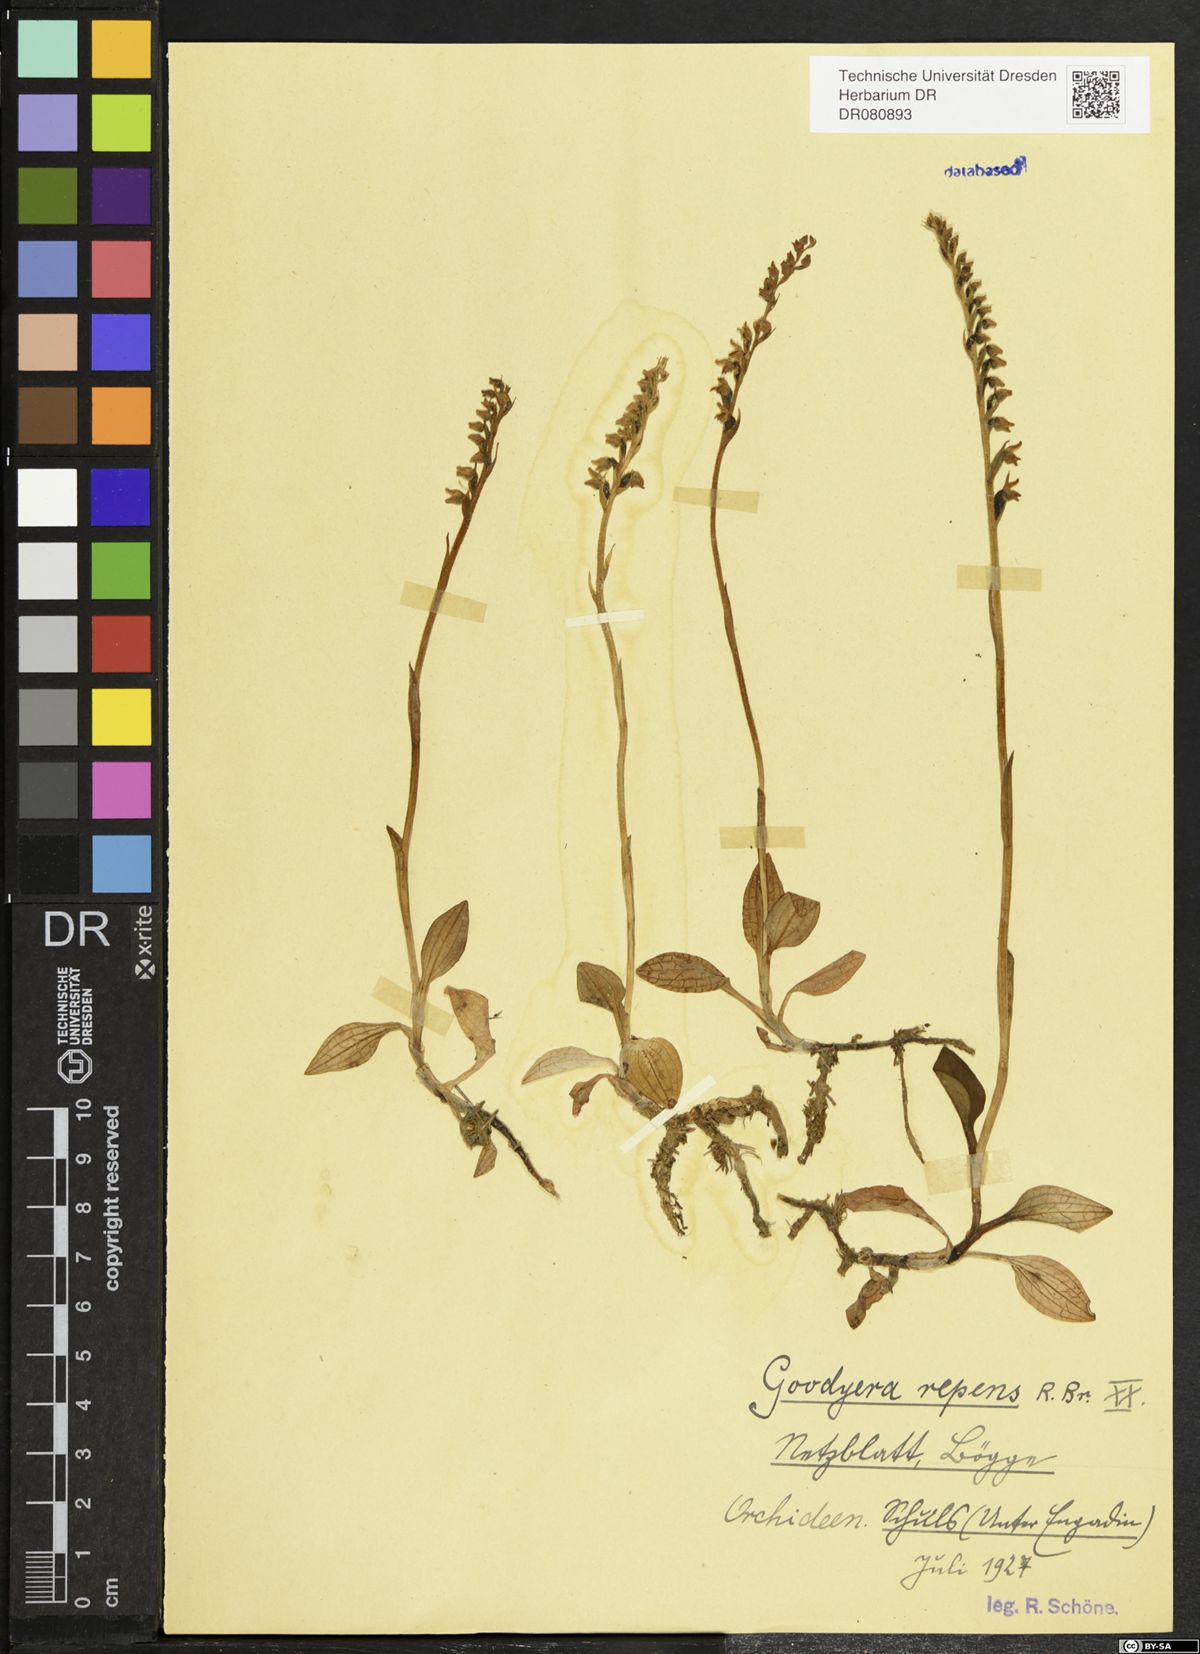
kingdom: Plantae
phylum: Tracheophyta
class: Liliopsida
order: Asparagales
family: Orchidaceae
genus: Goodyera
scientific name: Goodyera repens
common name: Creeping lady's-tresses
